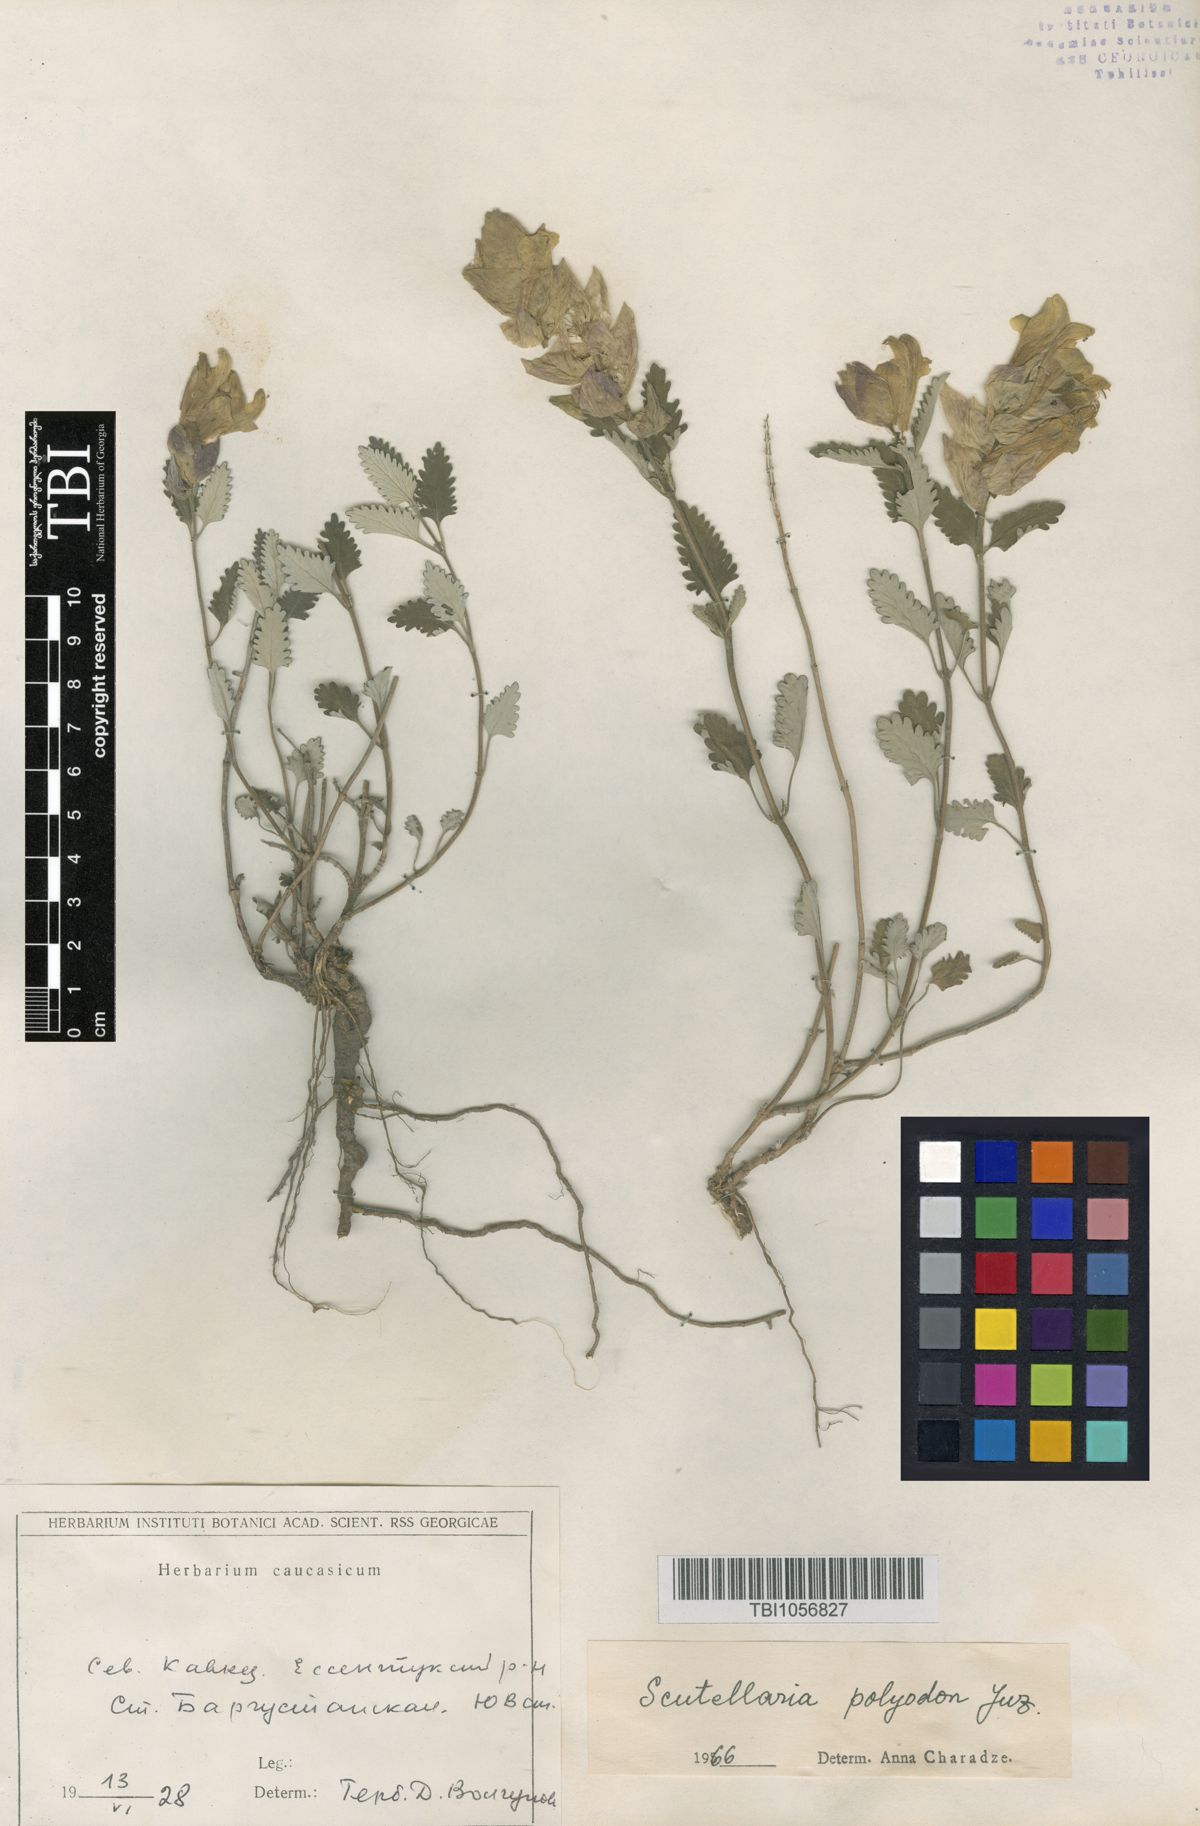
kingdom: Plantae
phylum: Tracheophyta
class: Magnoliopsida
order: Lamiales
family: Lamiaceae
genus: Scutellaria
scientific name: Scutellaria caucasica
